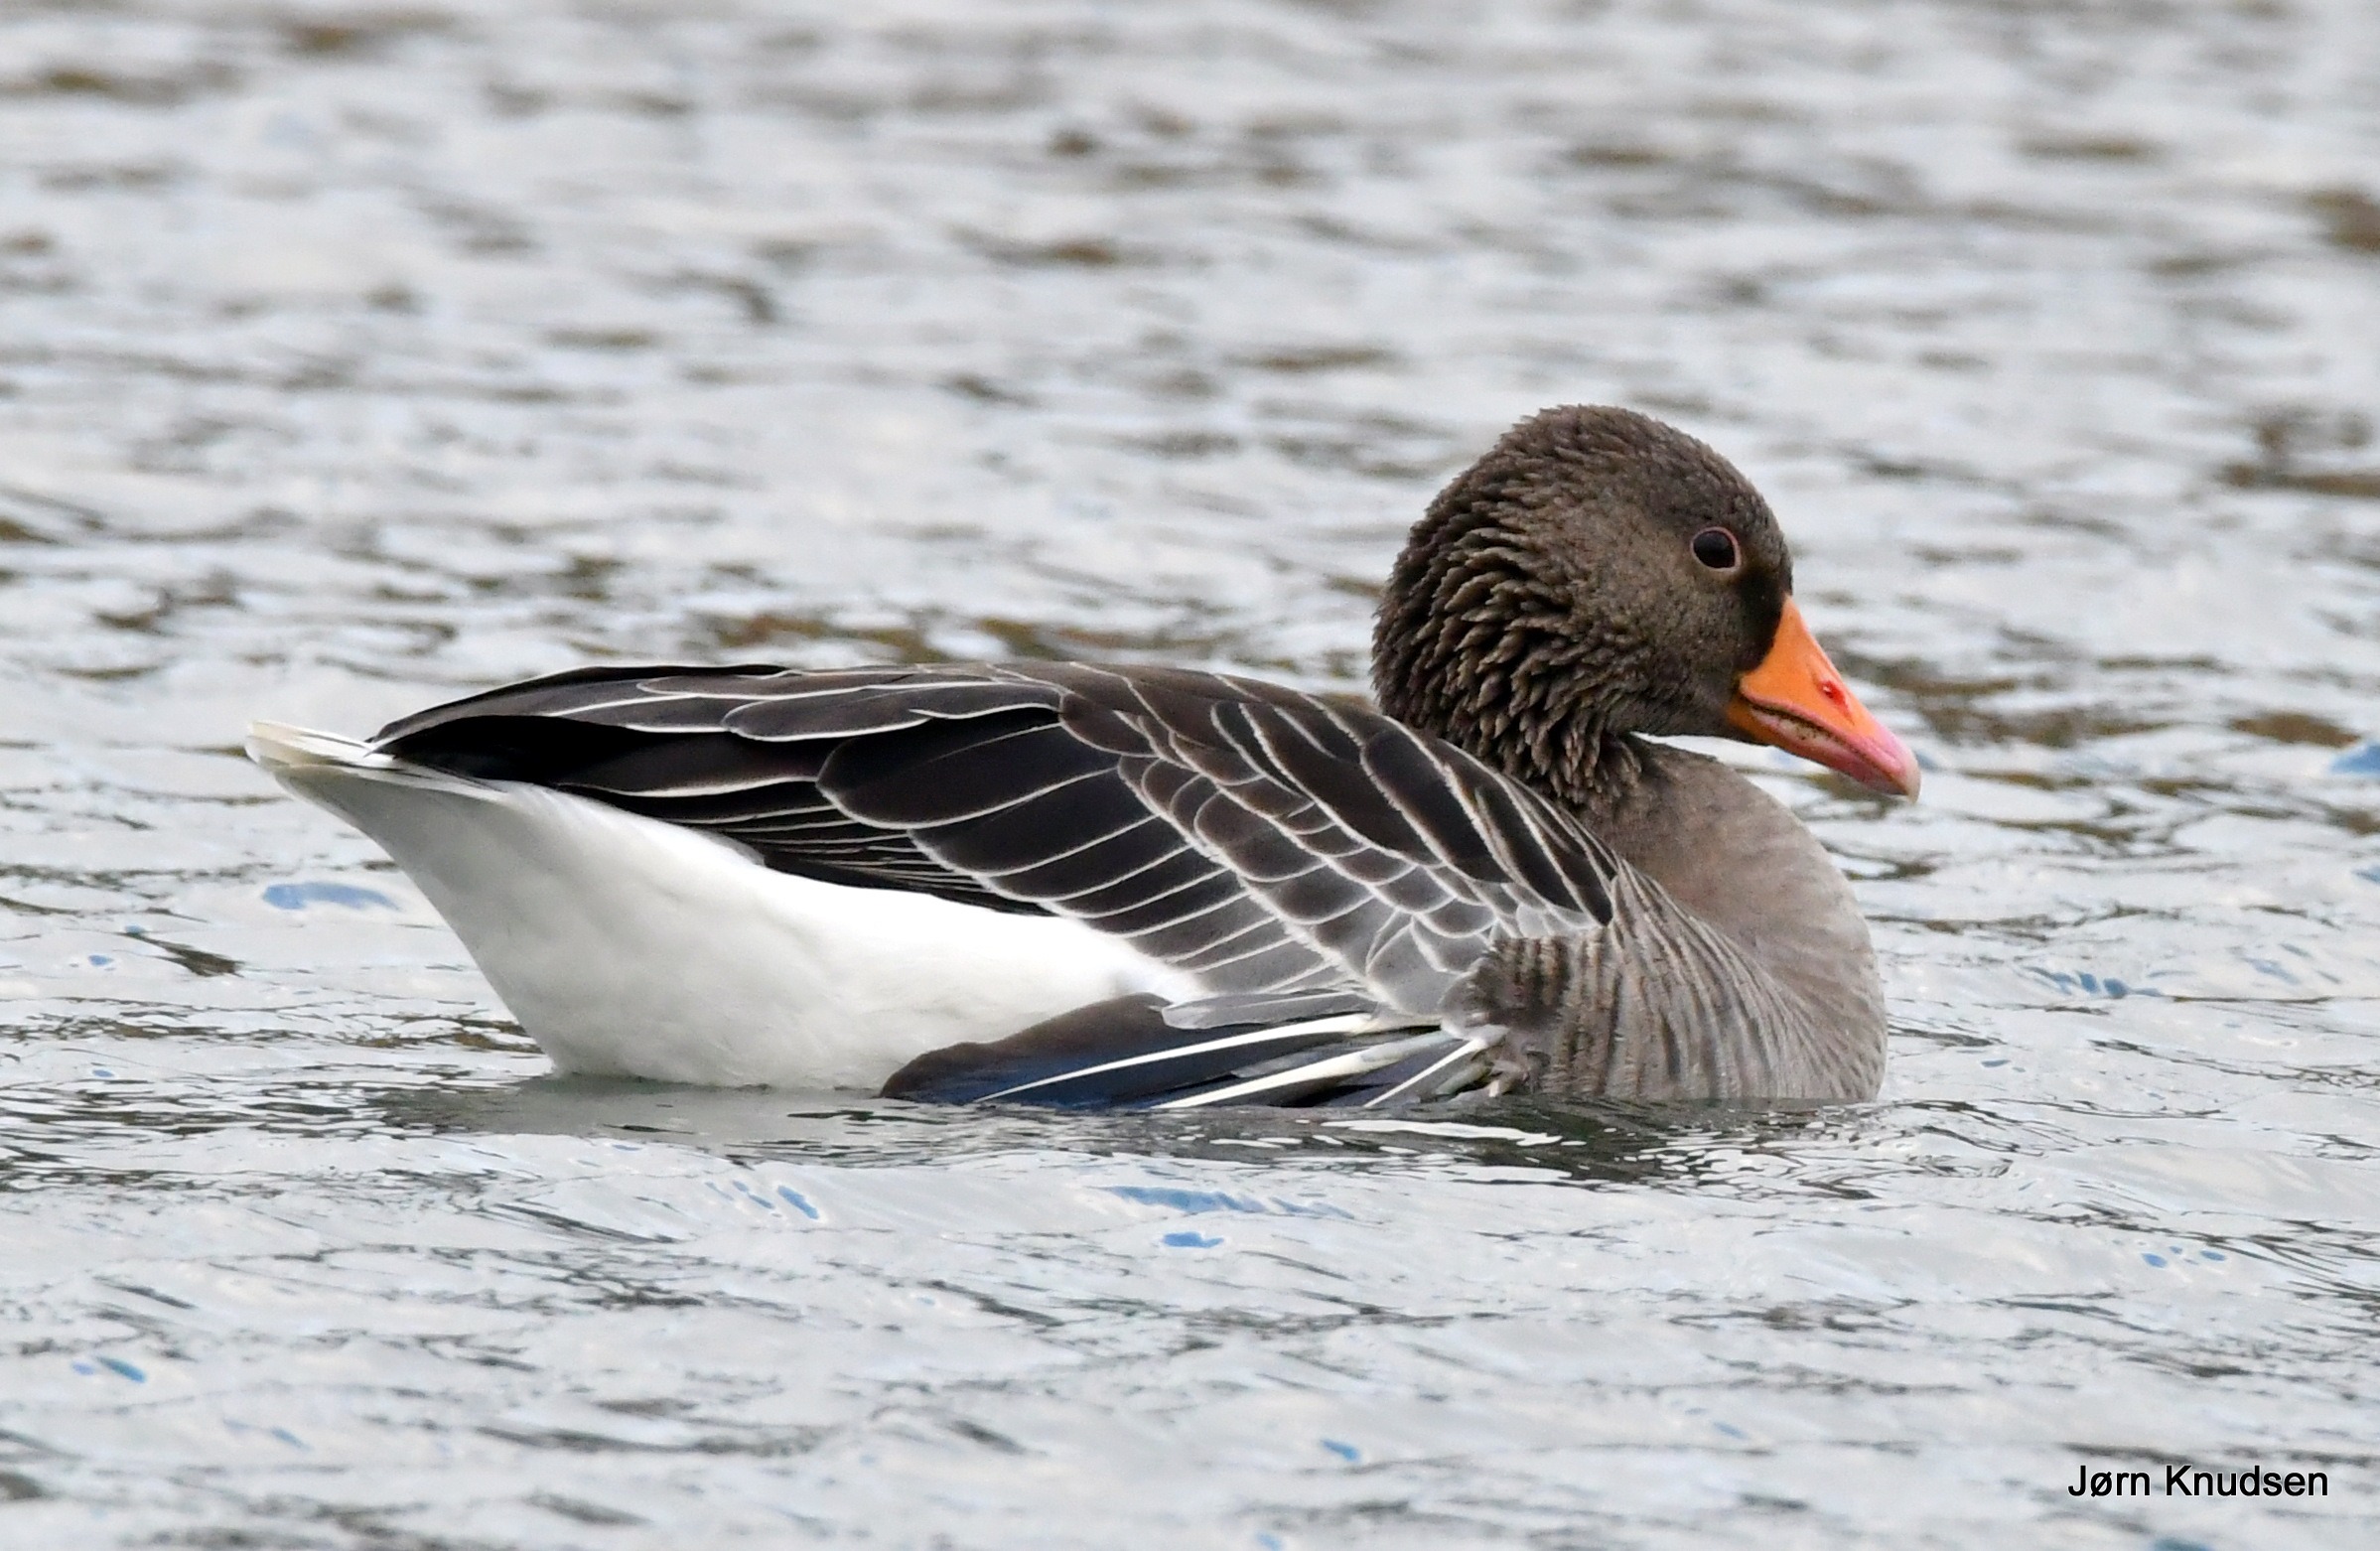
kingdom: Animalia
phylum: Chordata
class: Aves
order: Anseriformes
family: Anatidae
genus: Anser
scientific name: Anser anser
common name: Grågås
